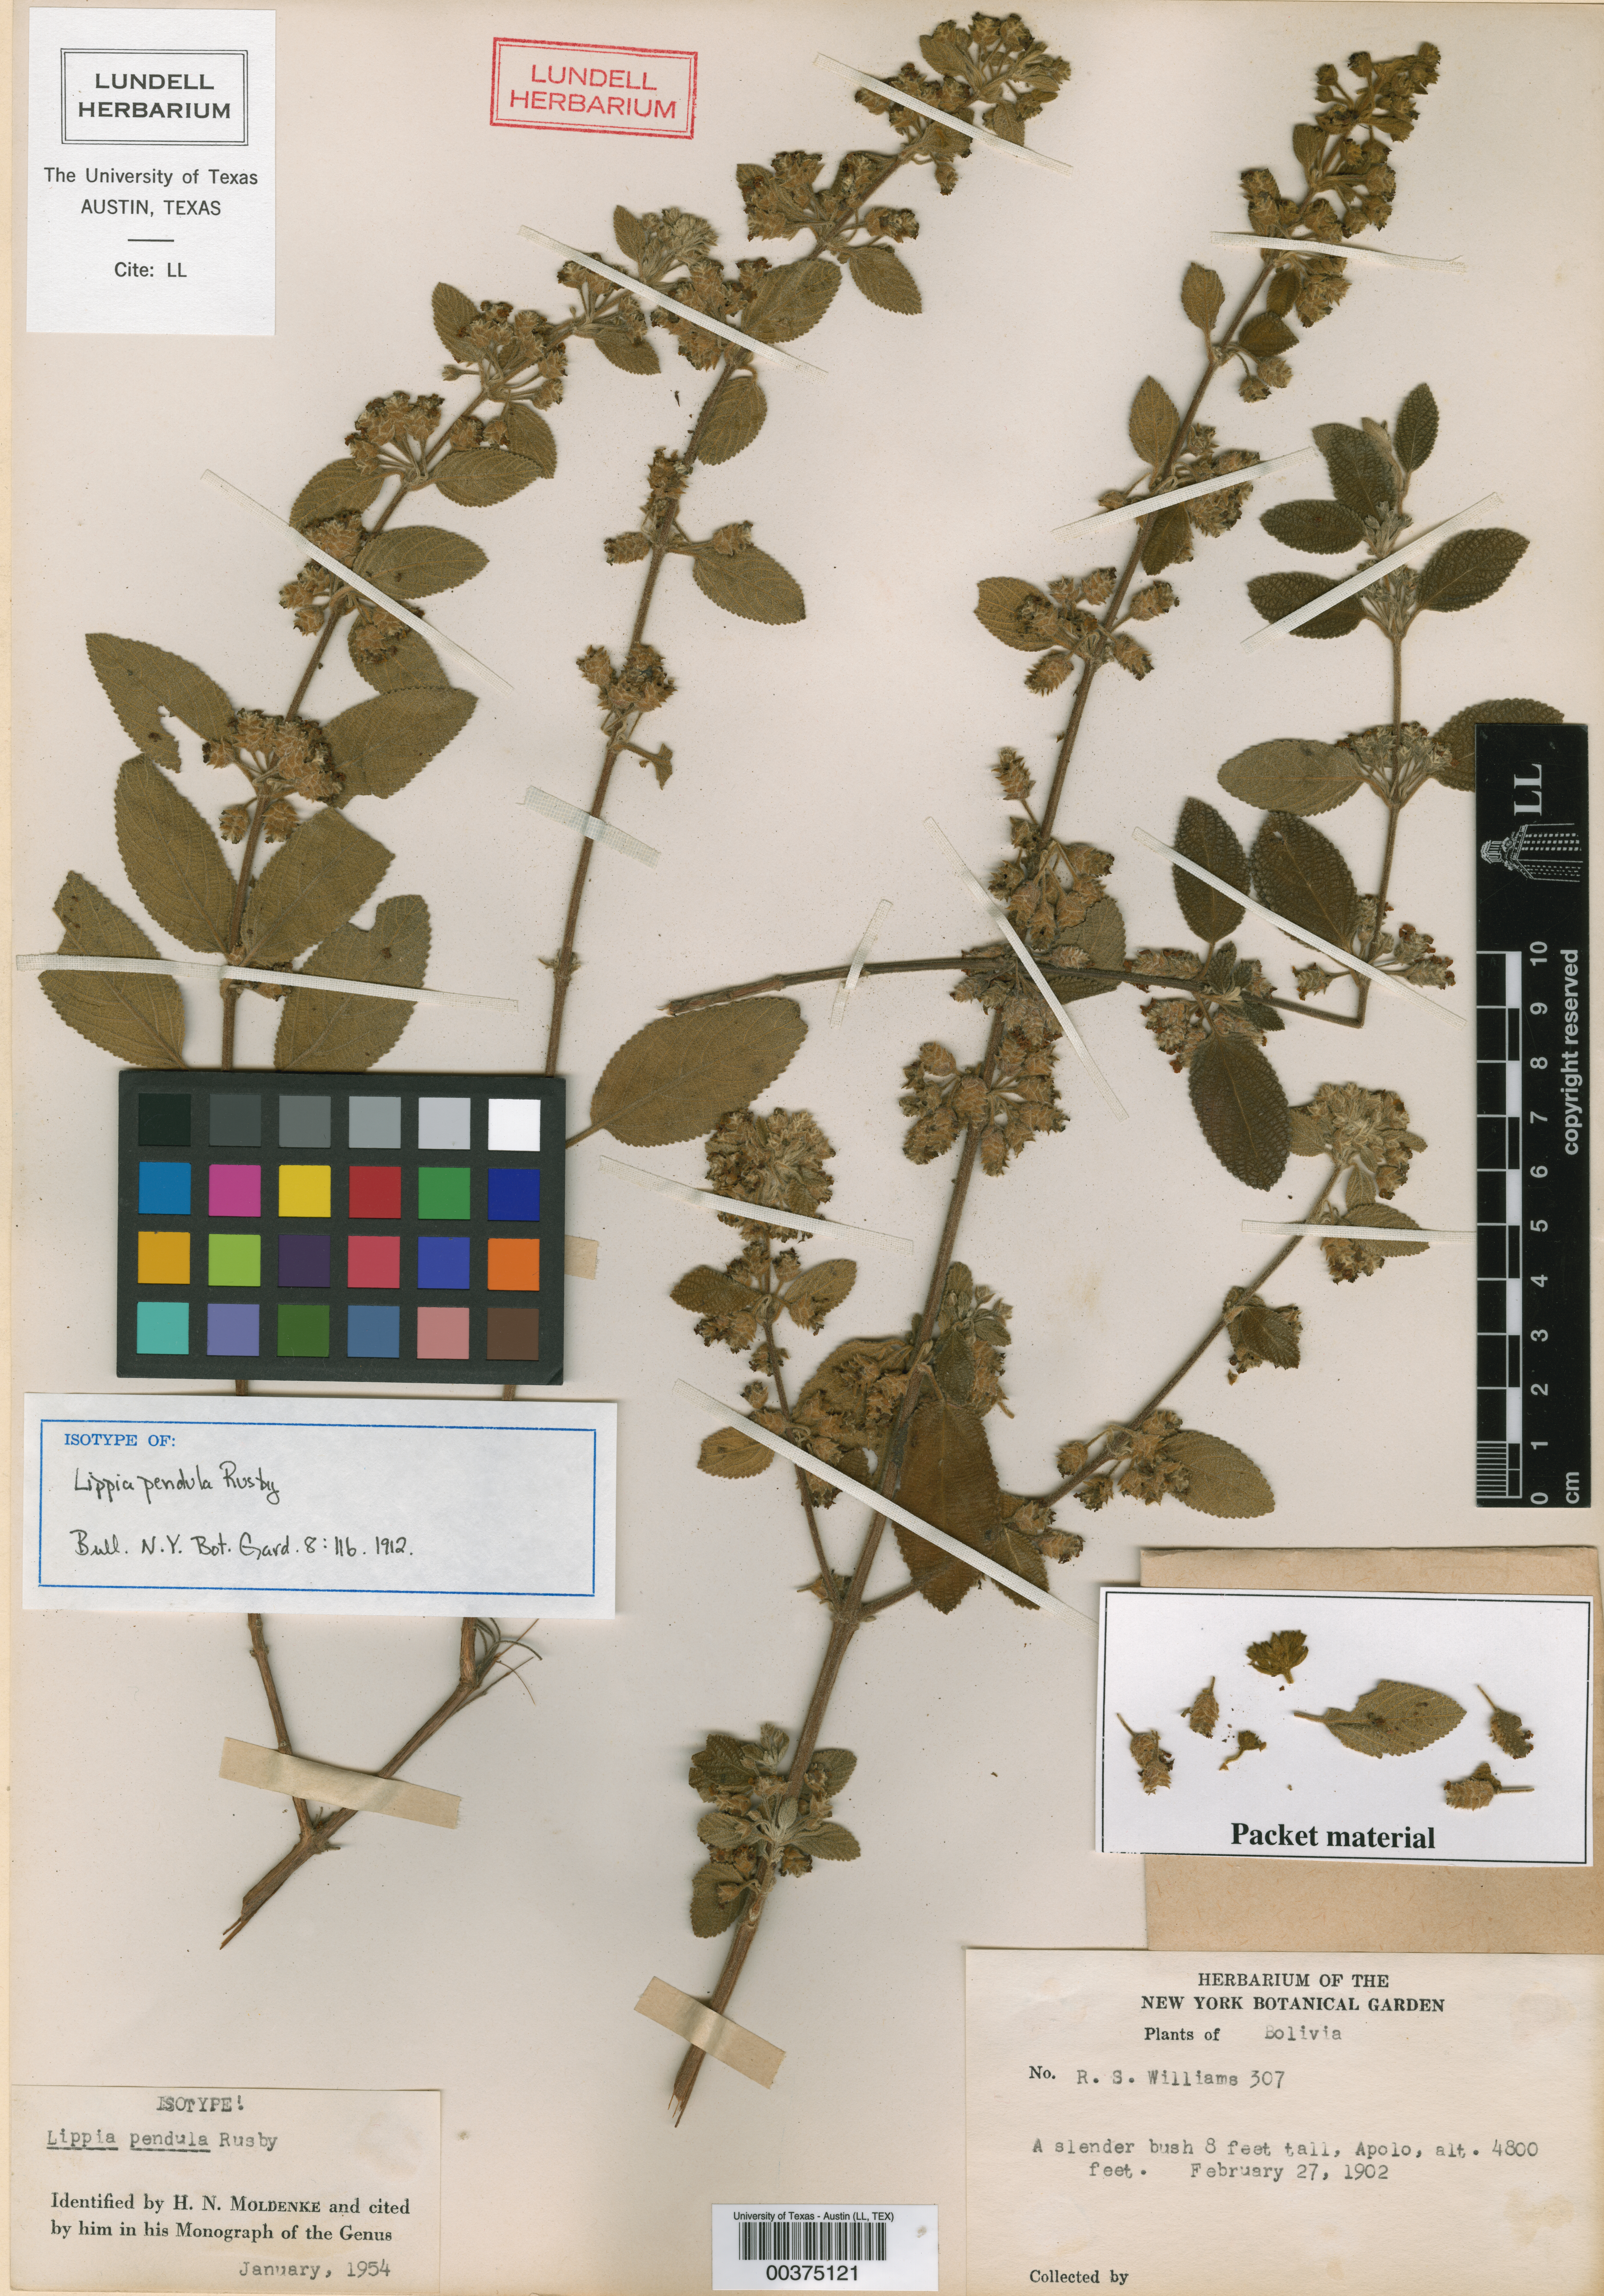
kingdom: Plantae
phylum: Tracheophyta
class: Magnoliopsida
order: Lamiales
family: Verbenaceae
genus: Lippia
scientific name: Lippia origanoides
